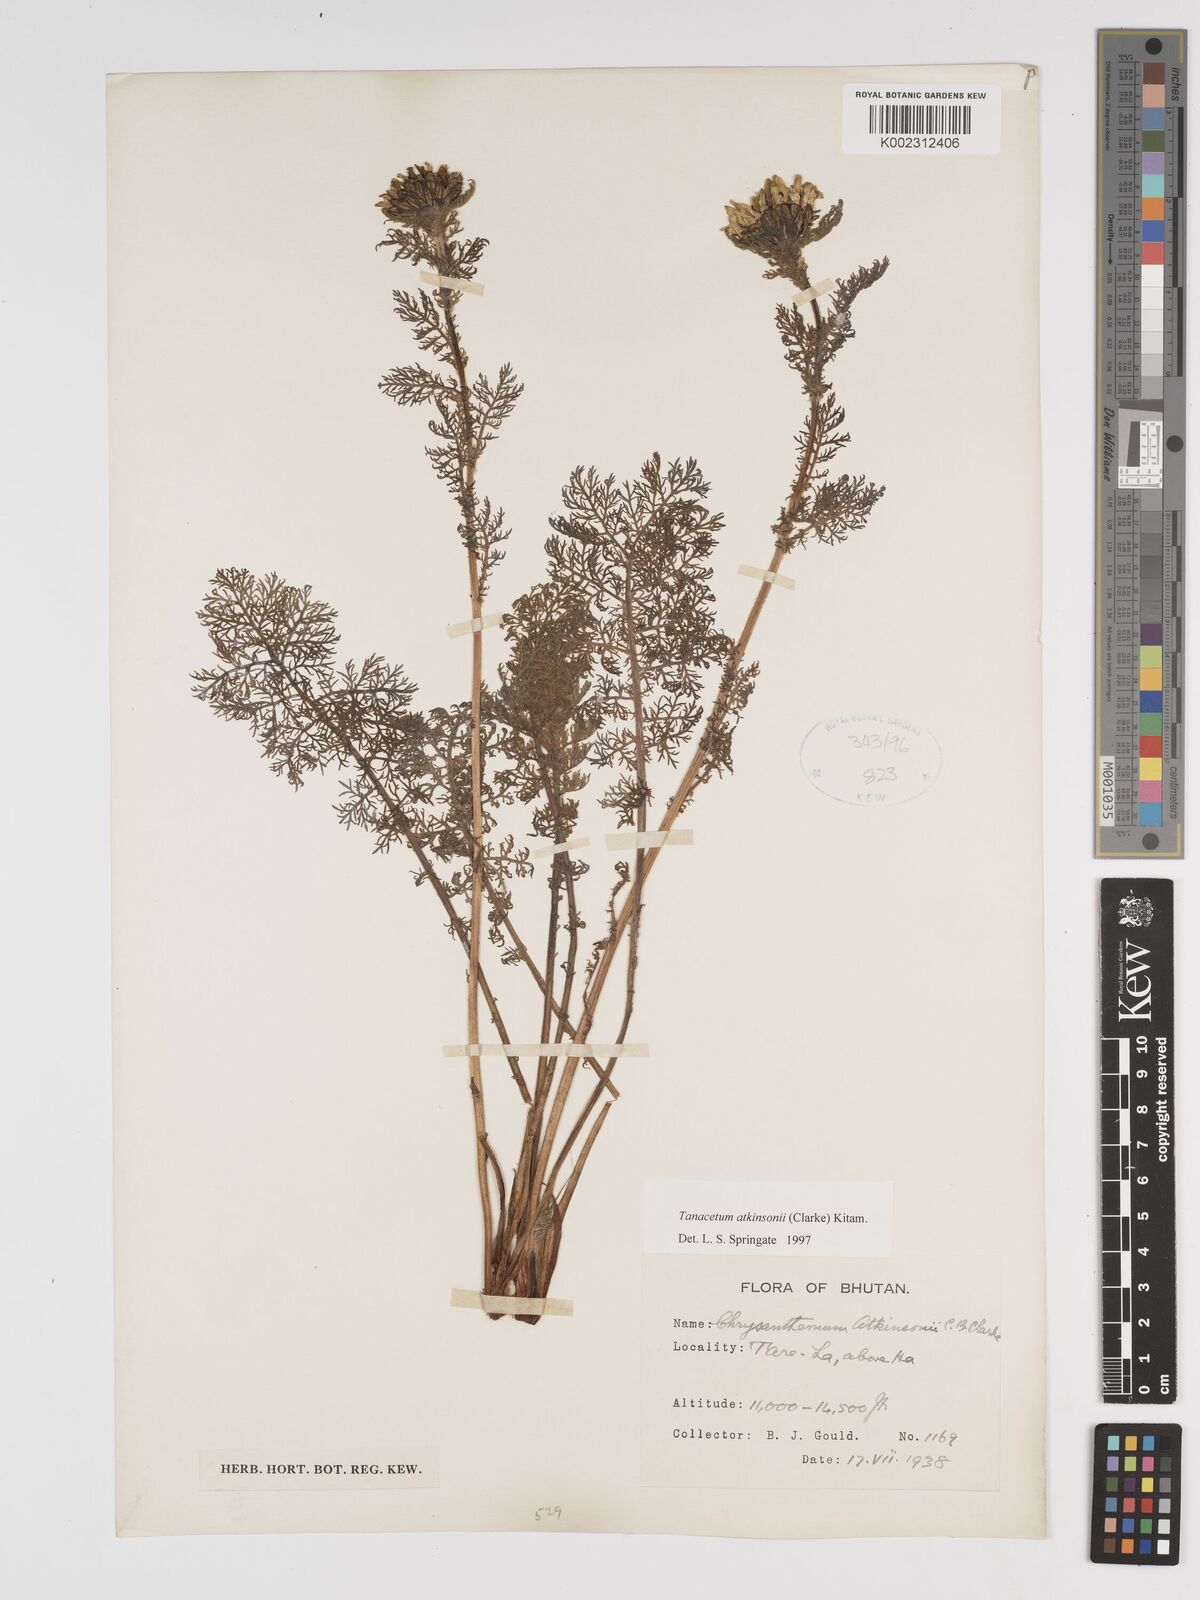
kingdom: Plantae
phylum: Tracheophyta
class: Magnoliopsida
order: Asterales
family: Asteraceae
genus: Tanacetum
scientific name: Tanacetum atkinsonii
